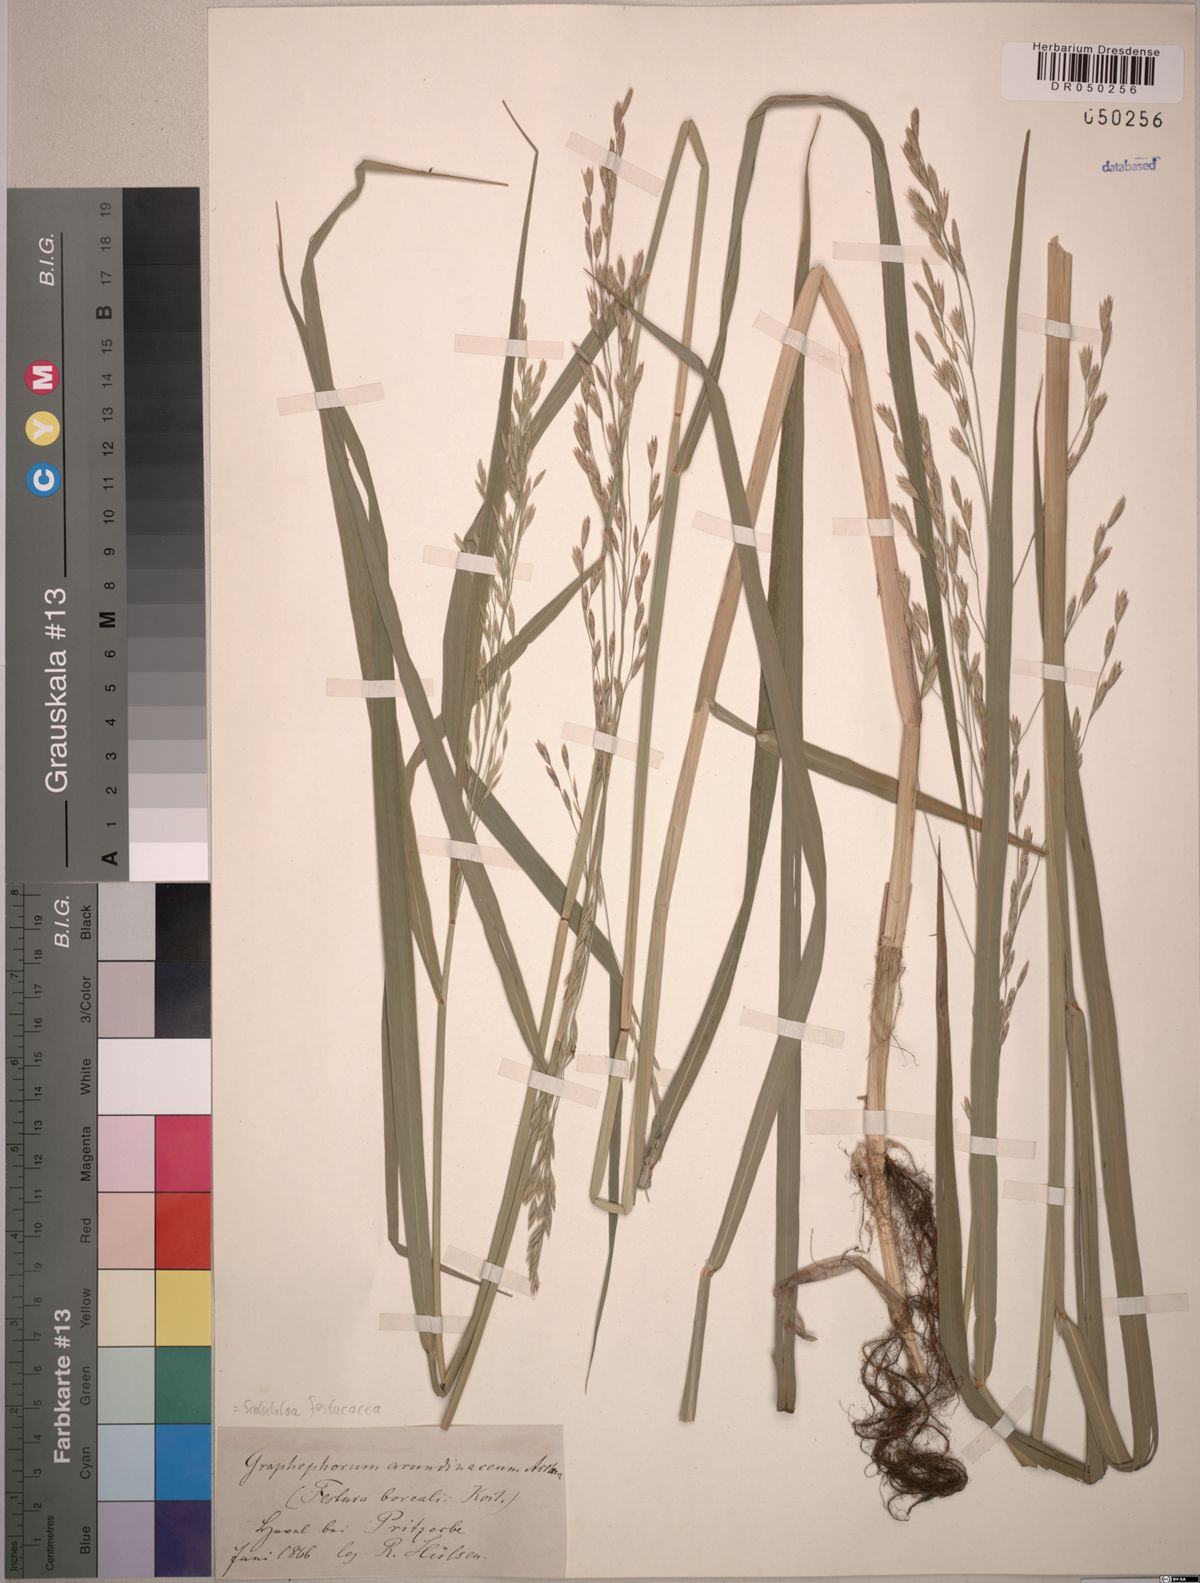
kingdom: Plantae
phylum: Tracheophyta
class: Liliopsida
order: Poales
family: Poaceae
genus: Scolochloa
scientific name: Scolochloa festucacea
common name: Common rivergrass
